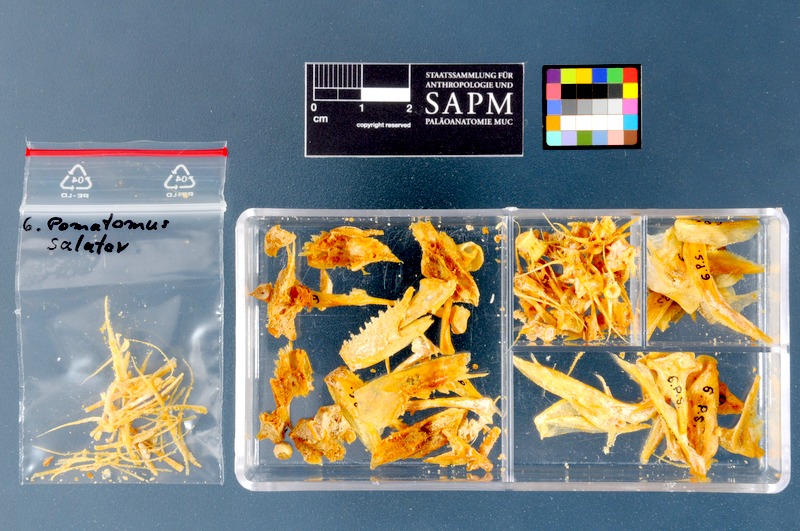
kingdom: Animalia
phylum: Chordata
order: Perciformes
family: Pomatomidae
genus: Pomatomus
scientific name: Pomatomus saltatrix
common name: Bluefish
